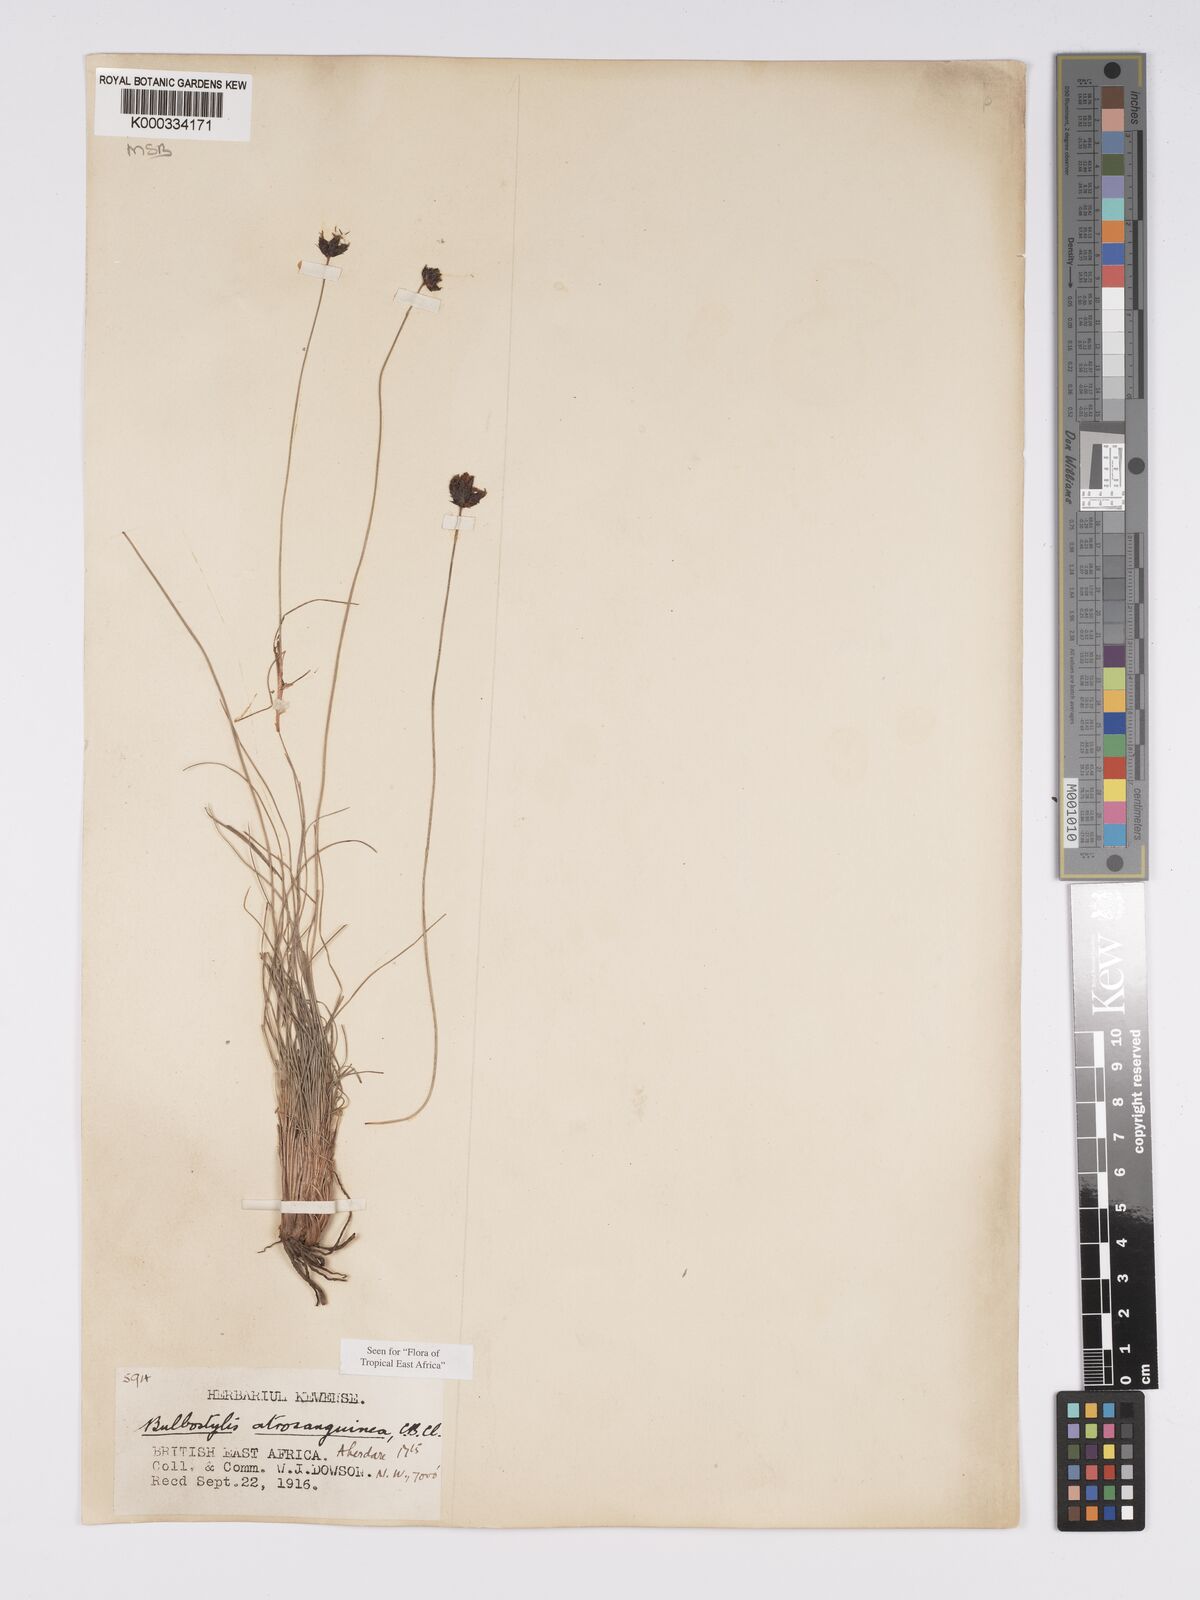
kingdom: Plantae
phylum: Tracheophyta
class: Liliopsida
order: Poales
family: Cyperaceae
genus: Bulbostylis
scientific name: Bulbostylis atrosanguinea
